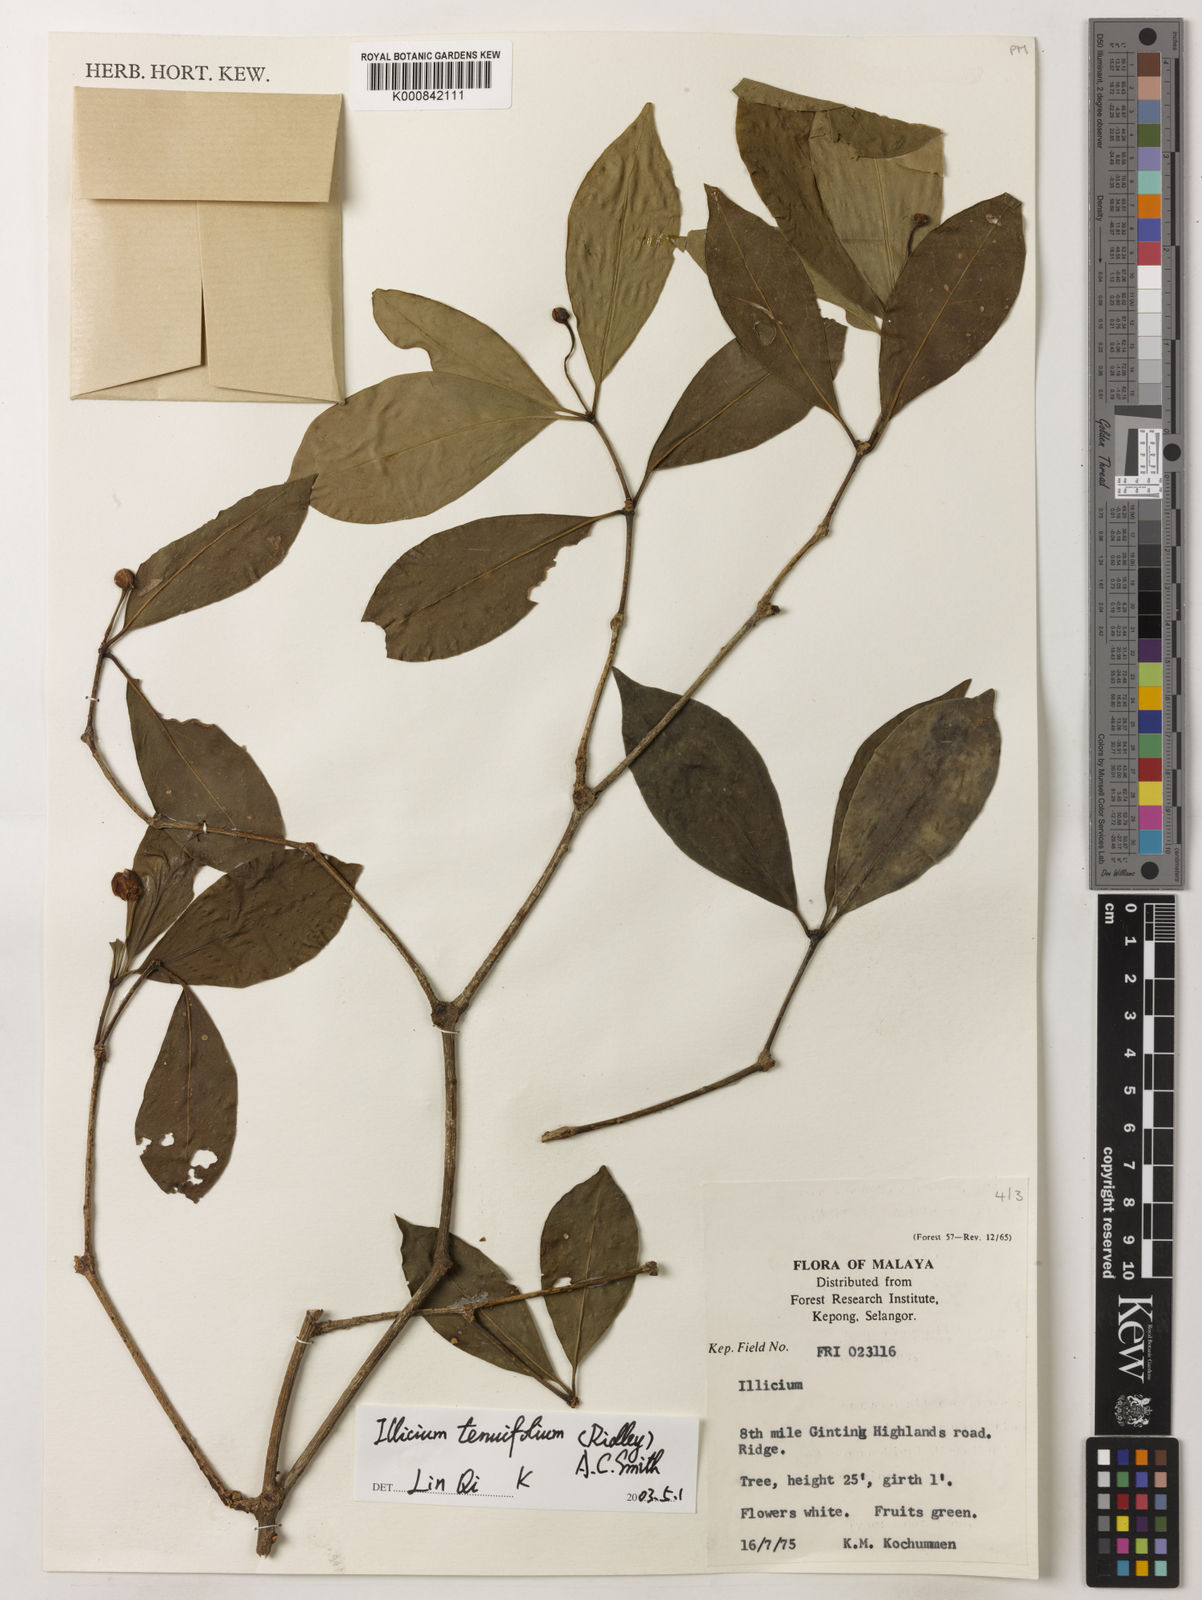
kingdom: Plantae
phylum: Tracheophyta
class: Magnoliopsida
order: Austrobaileyales
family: Schisandraceae
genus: Illicium
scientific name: Illicium tenuifolium
